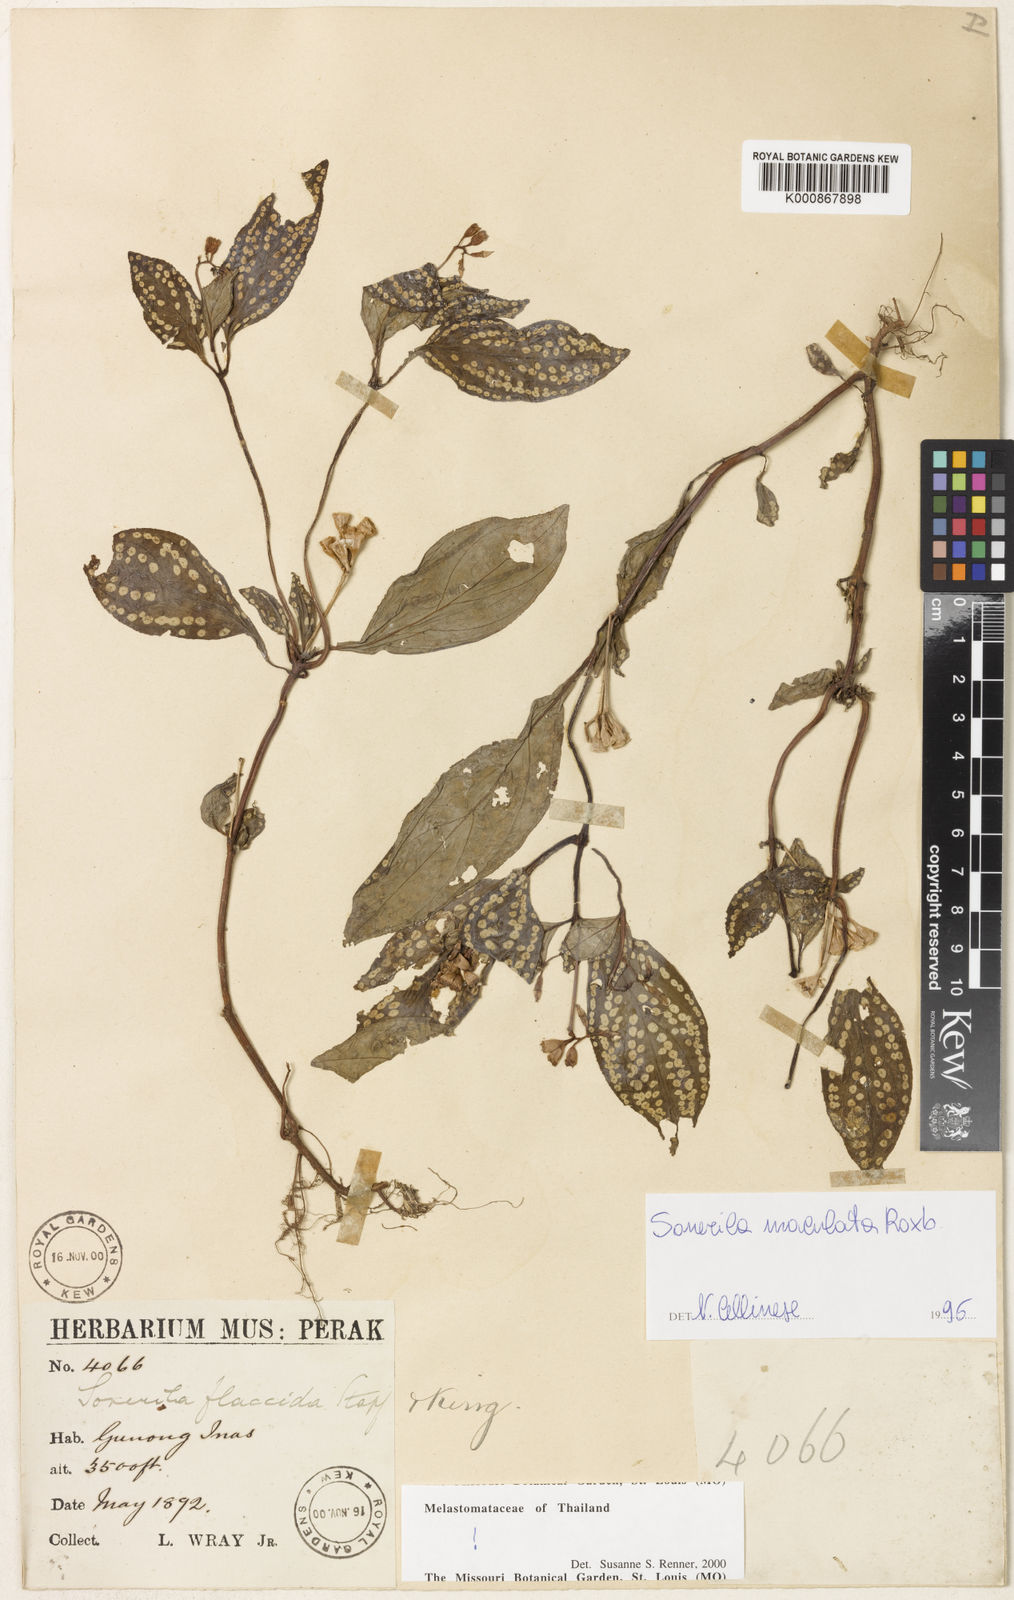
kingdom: Plantae
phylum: Tracheophyta
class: Magnoliopsida
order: Myrtales
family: Melastomataceae
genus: Sonerila
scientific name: Sonerila maculata
